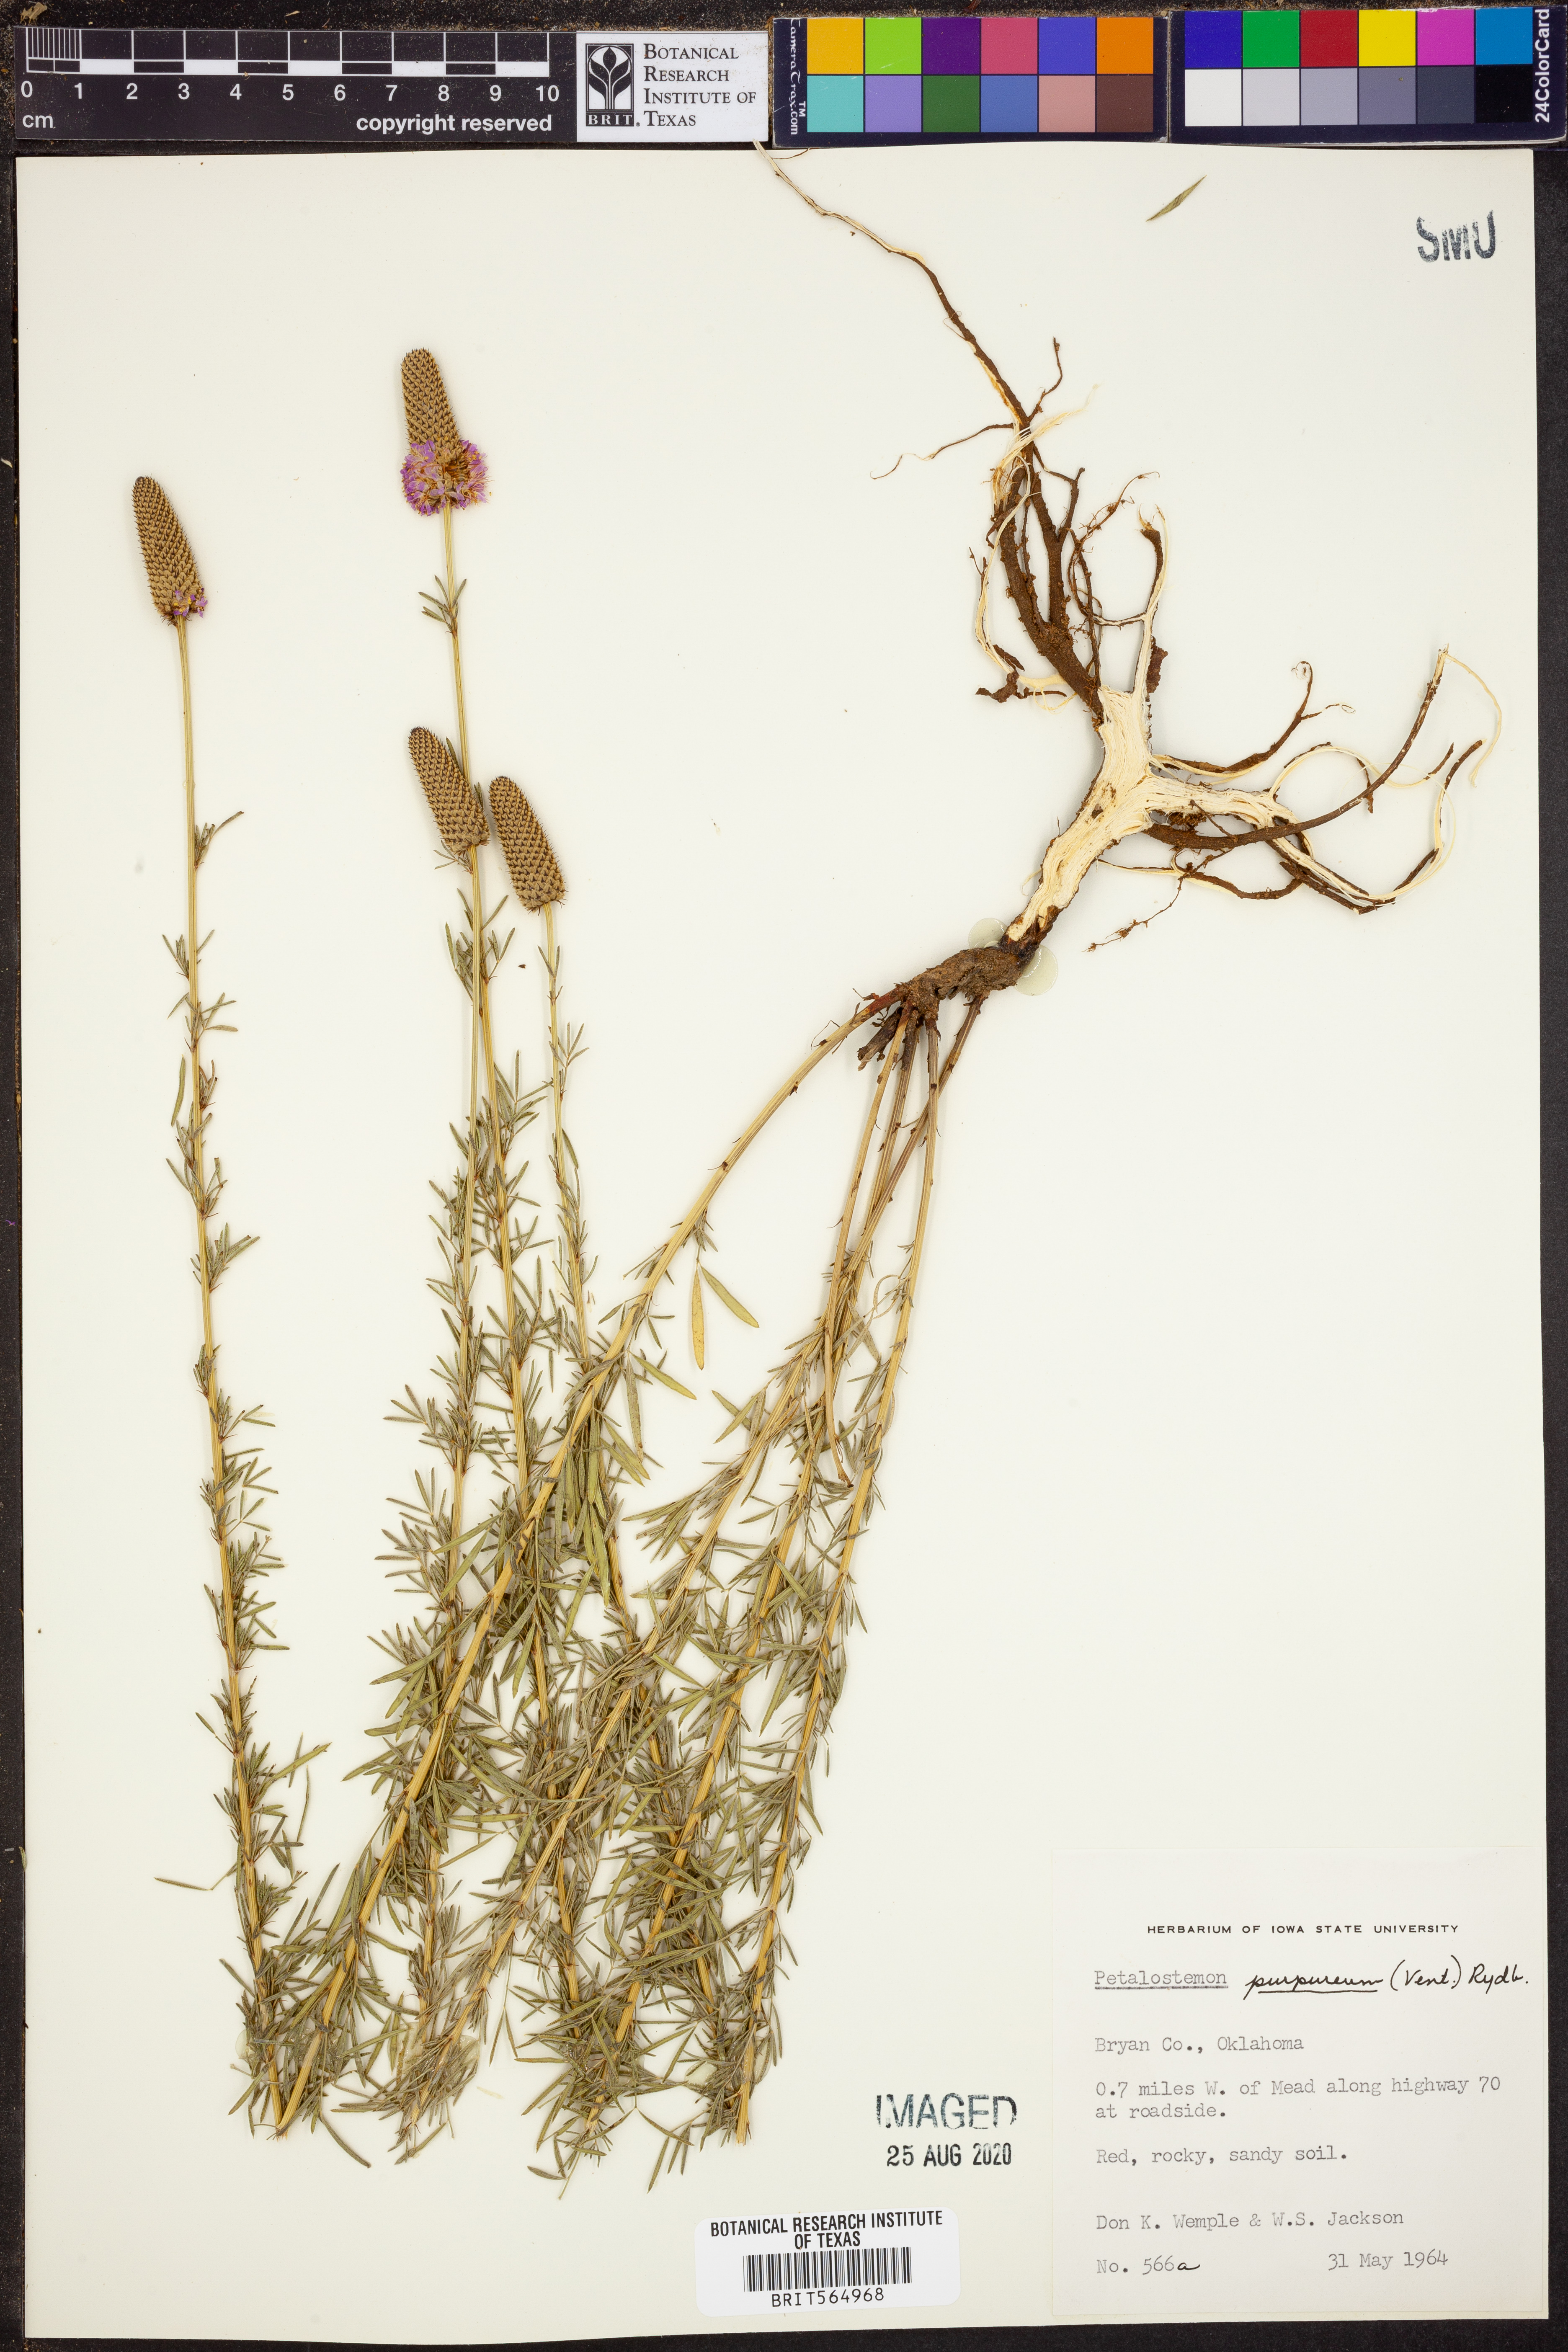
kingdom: Plantae
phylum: Tracheophyta
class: Magnoliopsida
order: Fabales
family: Fabaceae
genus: Dalea
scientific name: Dalea purpurea
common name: Purple prairie-clover
